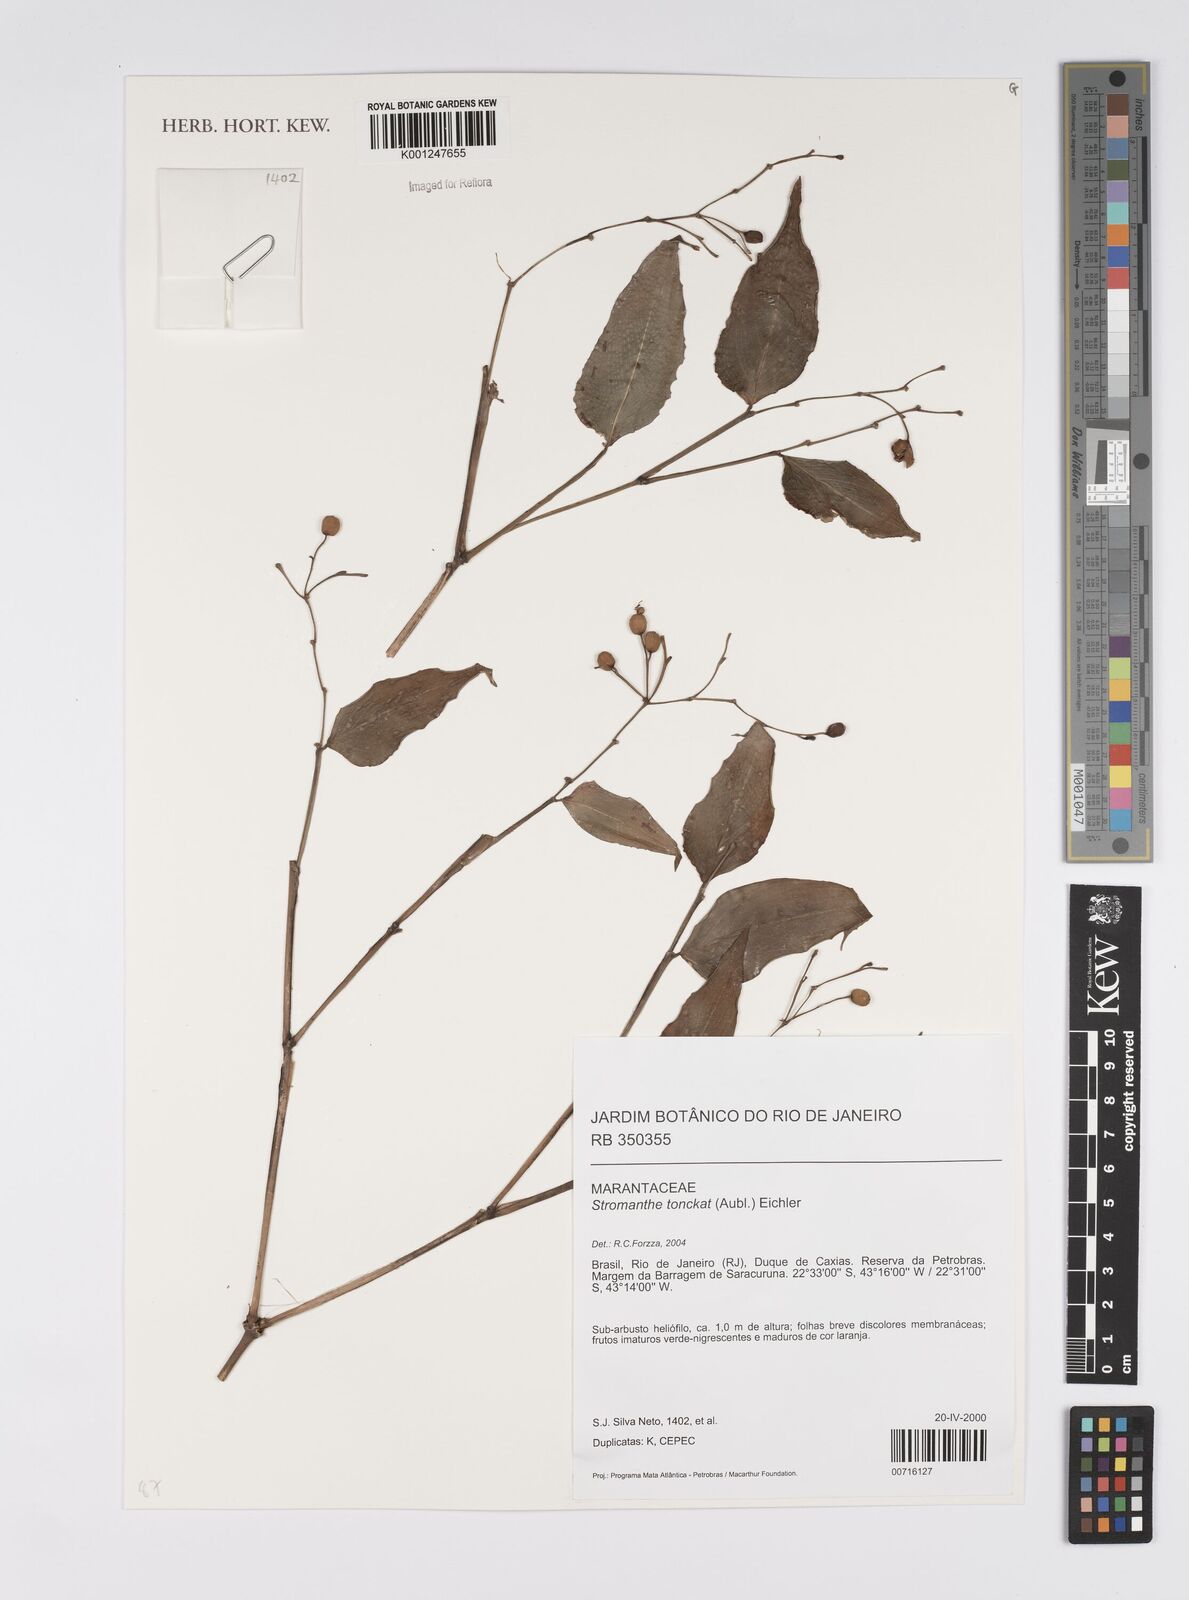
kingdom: Plantae
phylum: Tracheophyta
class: Liliopsida
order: Zingiberales
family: Marantaceae
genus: Stromanthe
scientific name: Stromanthe tonckat
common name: Stromanthe
